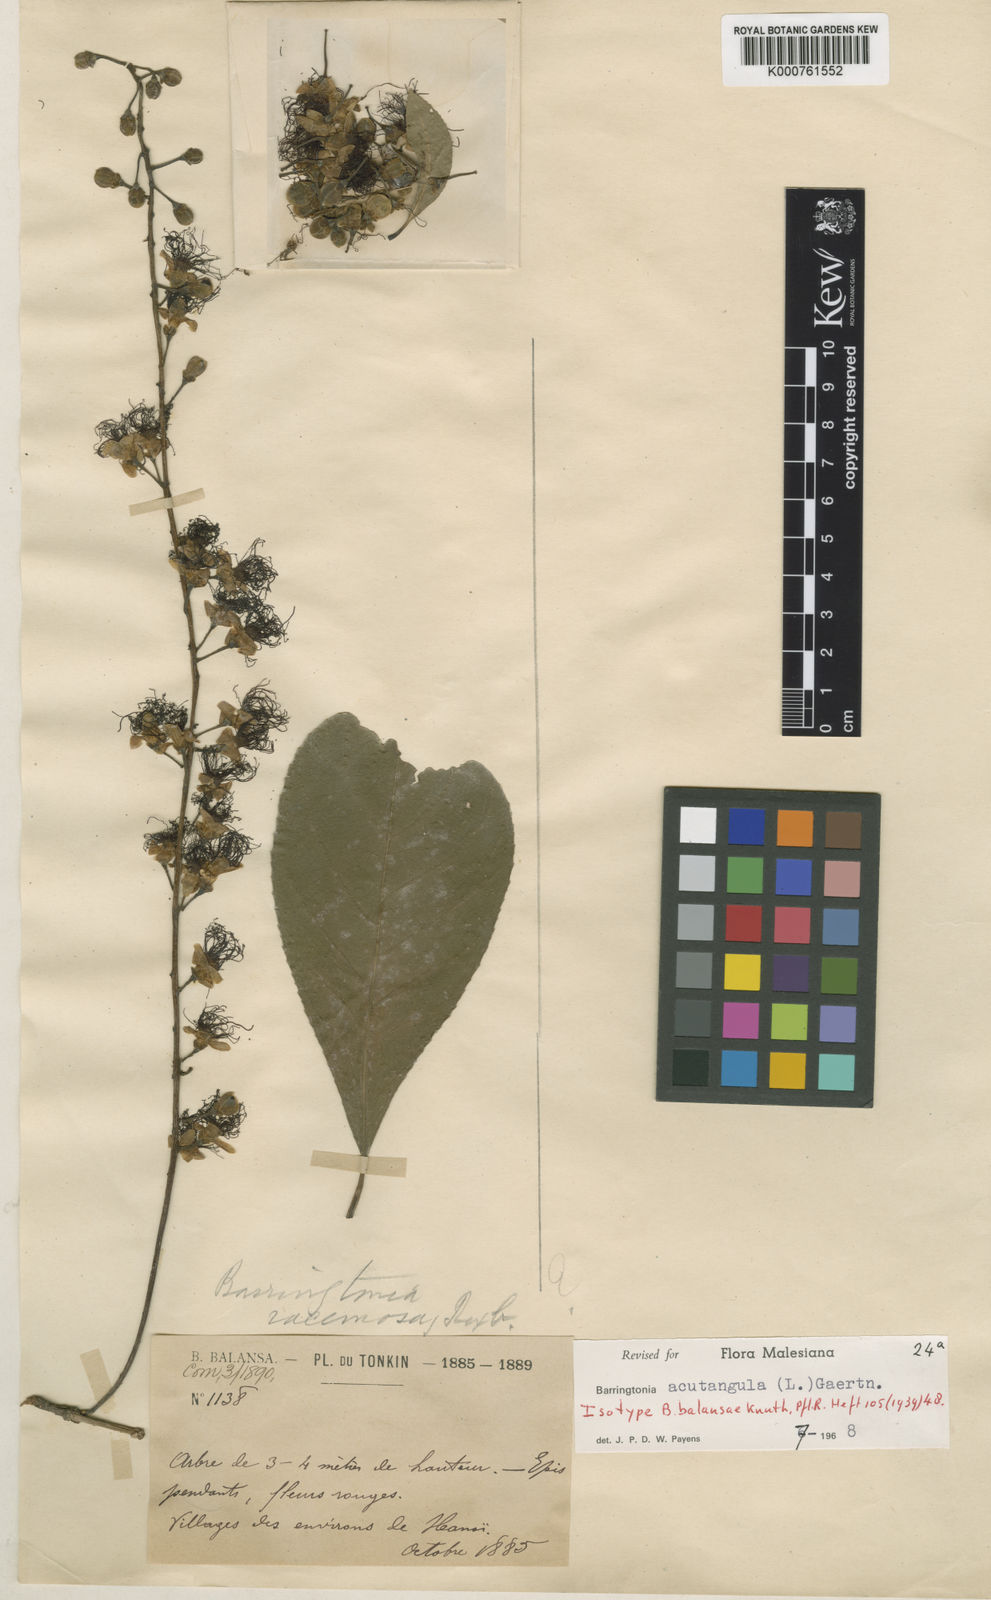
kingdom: Plantae
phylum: Tracheophyta
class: Magnoliopsida
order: Ericales
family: Lecythidaceae
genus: Barringtonia
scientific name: Barringtonia acutangula
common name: Freshwater mangrove
